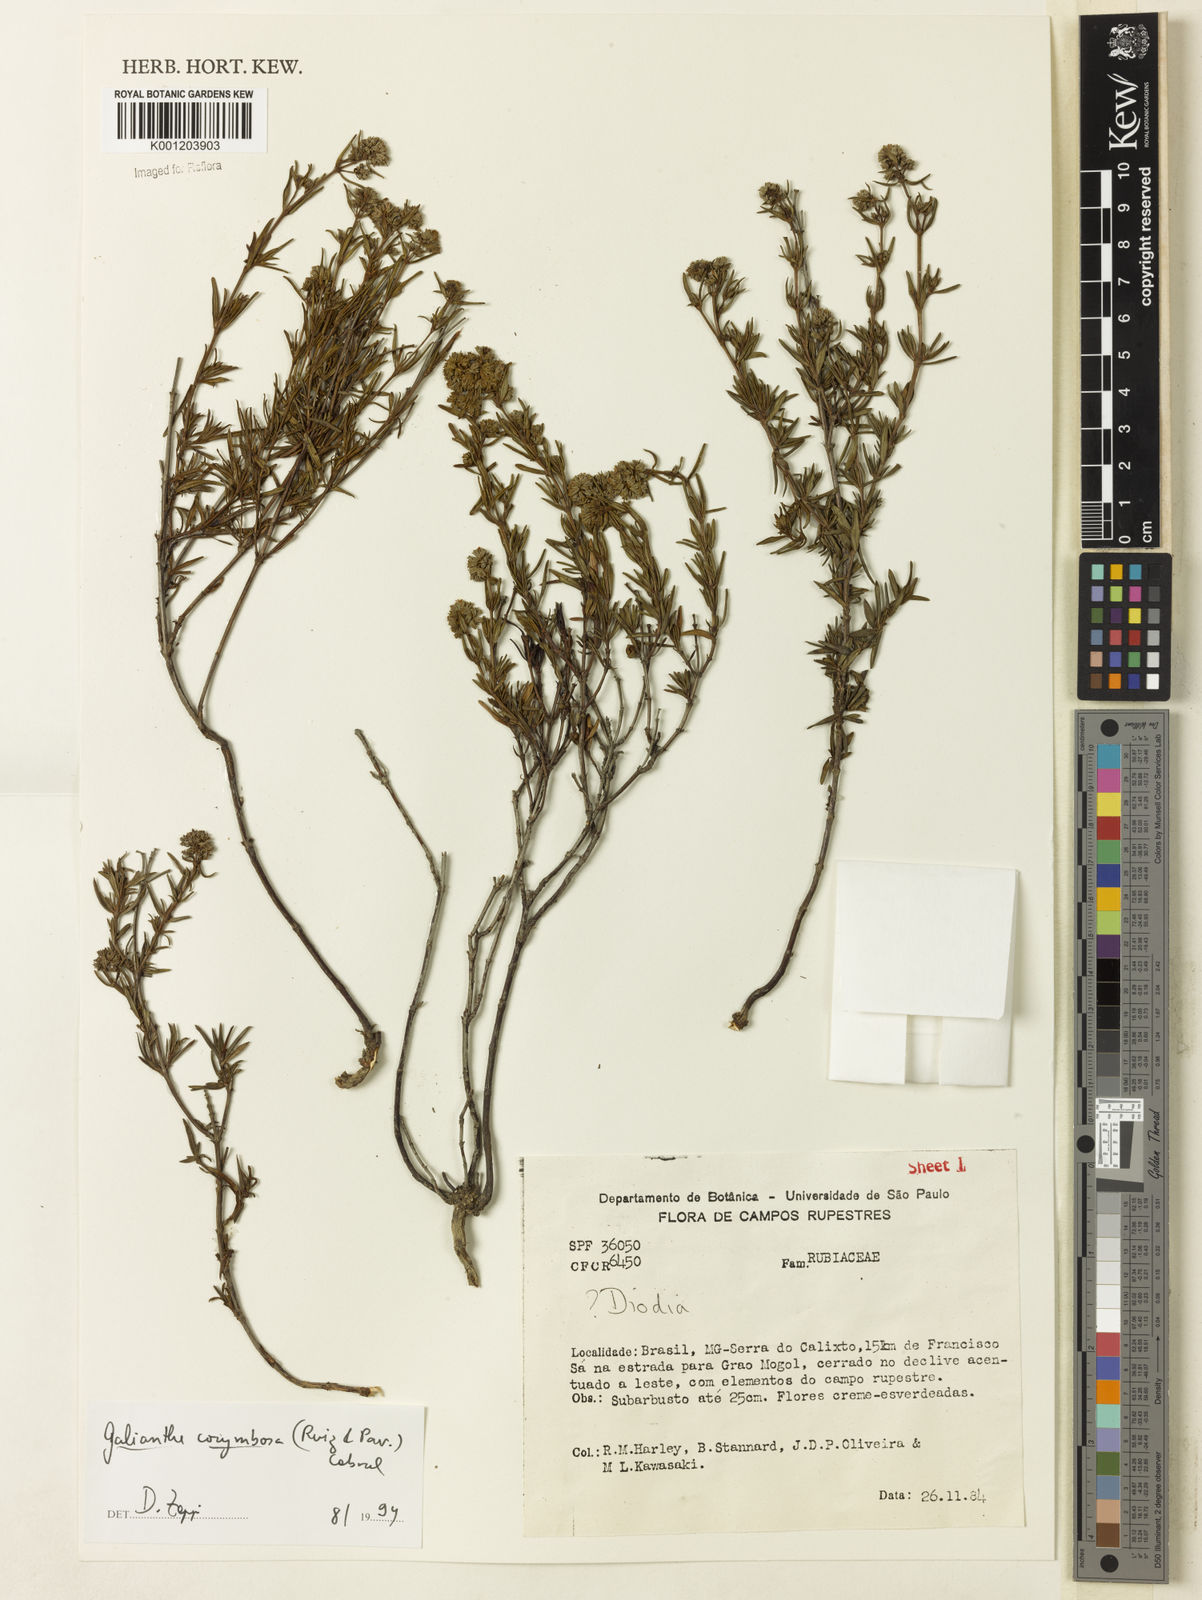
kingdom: Plantae
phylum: Tracheophyta
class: Magnoliopsida
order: Gentianales
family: Rubiaceae
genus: Galianthe
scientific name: Galianthe peruviana
